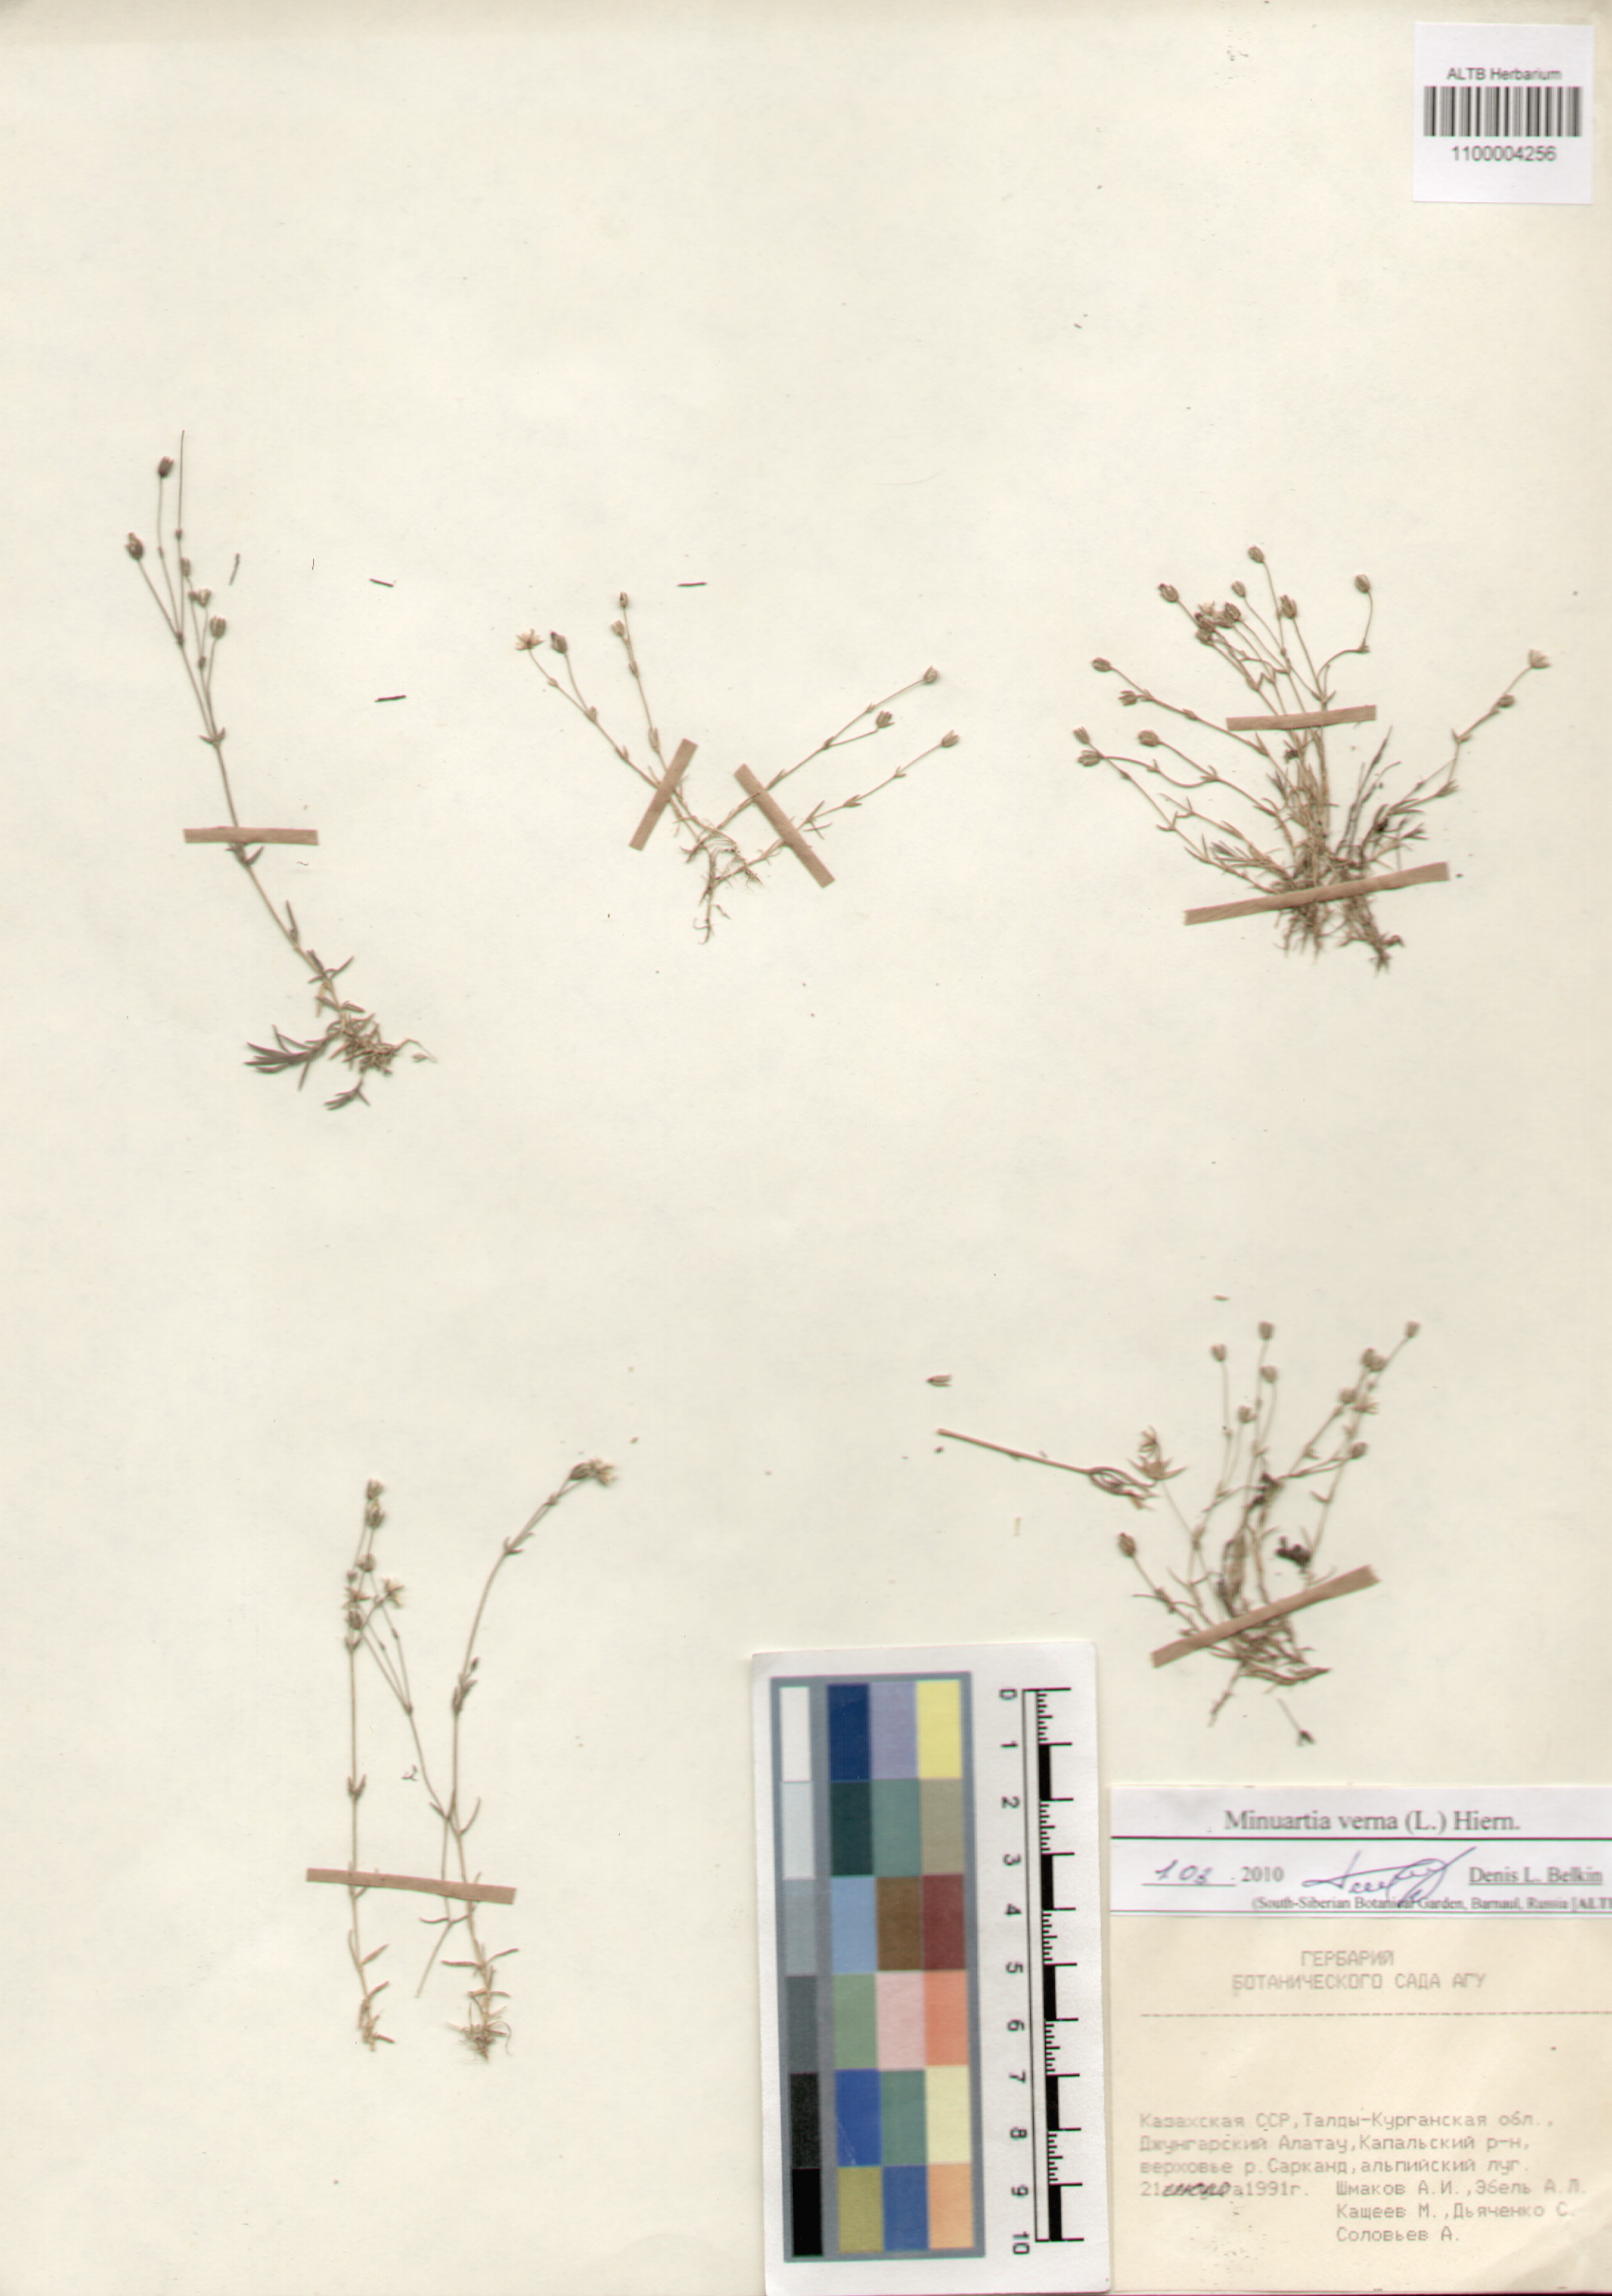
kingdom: Plantae
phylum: Tracheophyta
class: Magnoliopsida
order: Caryophyllales
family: Caryophyllaceae
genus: Sabulina
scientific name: Sabulina verna
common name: Spring sandwort
